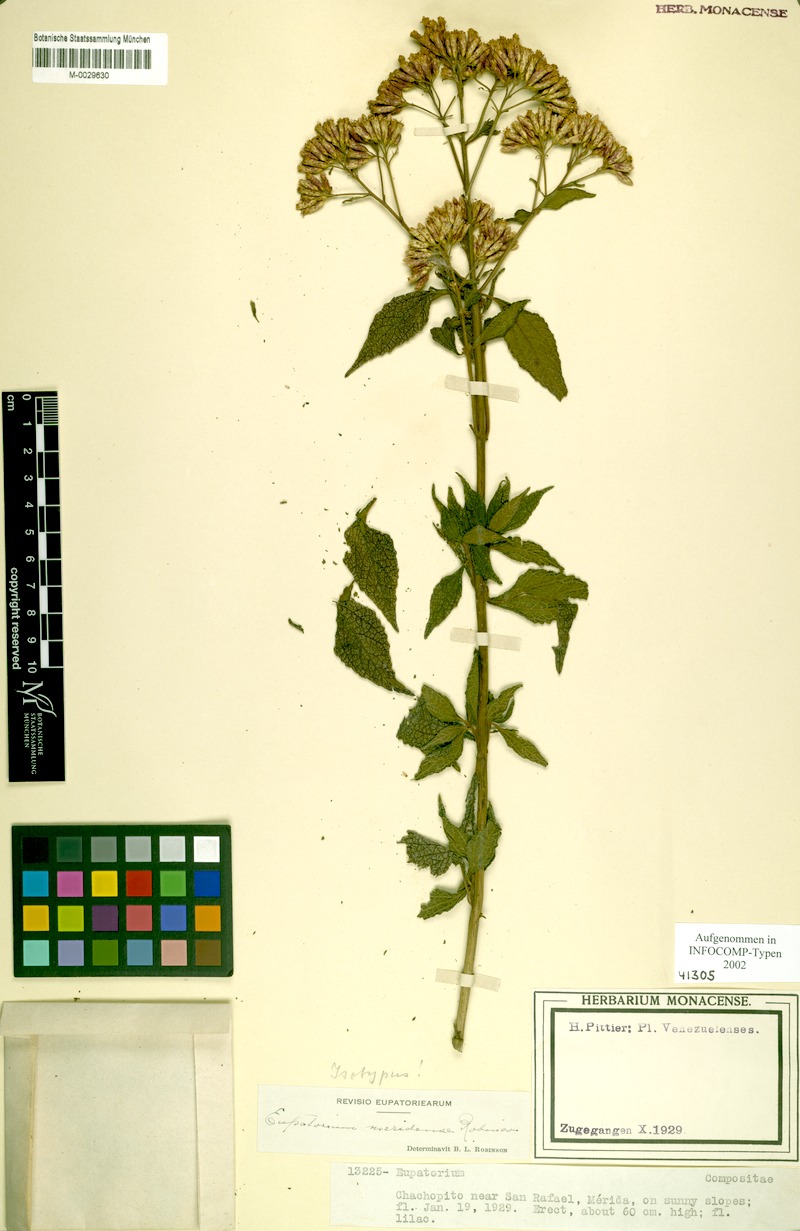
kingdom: Plantae
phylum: Tracheophyta
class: Magnoliopsida
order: Asterales
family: Asteraceae
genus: Chromolaena
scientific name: Chromolaena meridensis
